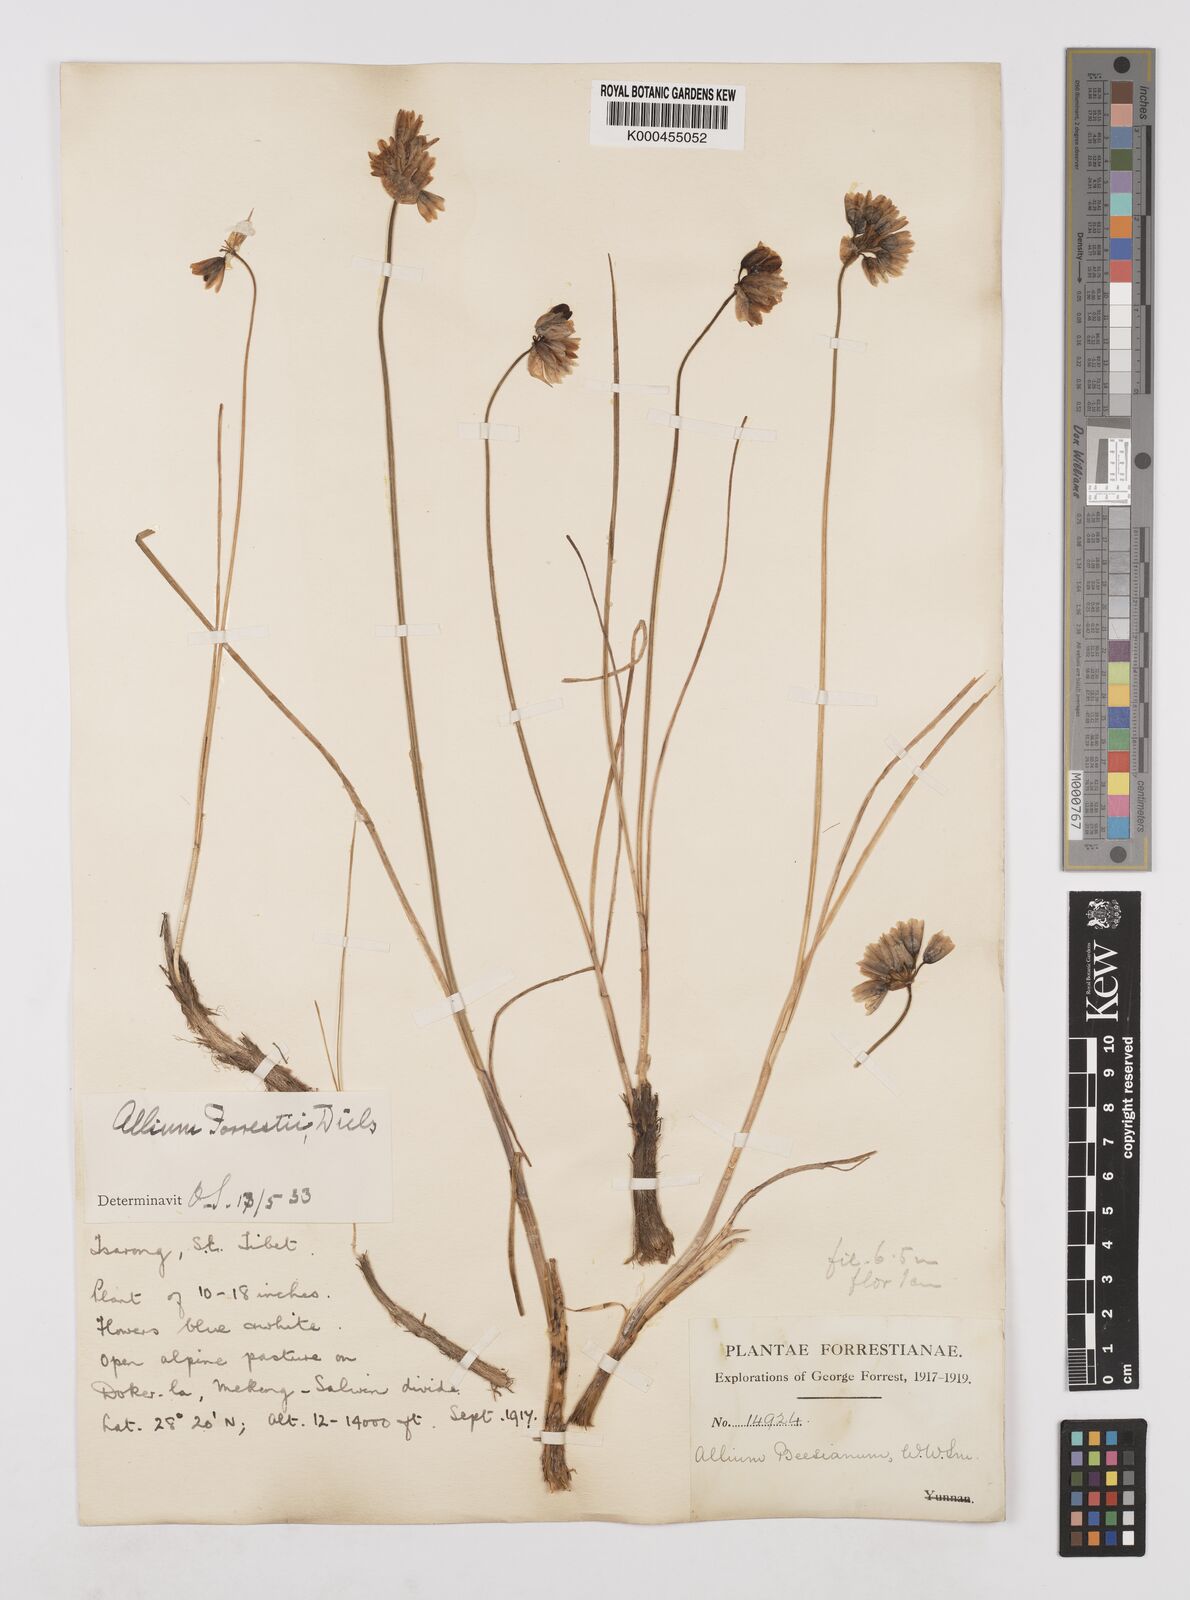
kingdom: Plantae
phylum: Tracheophyta
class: Liliopsida
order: Asparagales
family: Amaryllidaceae
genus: Allium
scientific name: Allium beesianum
